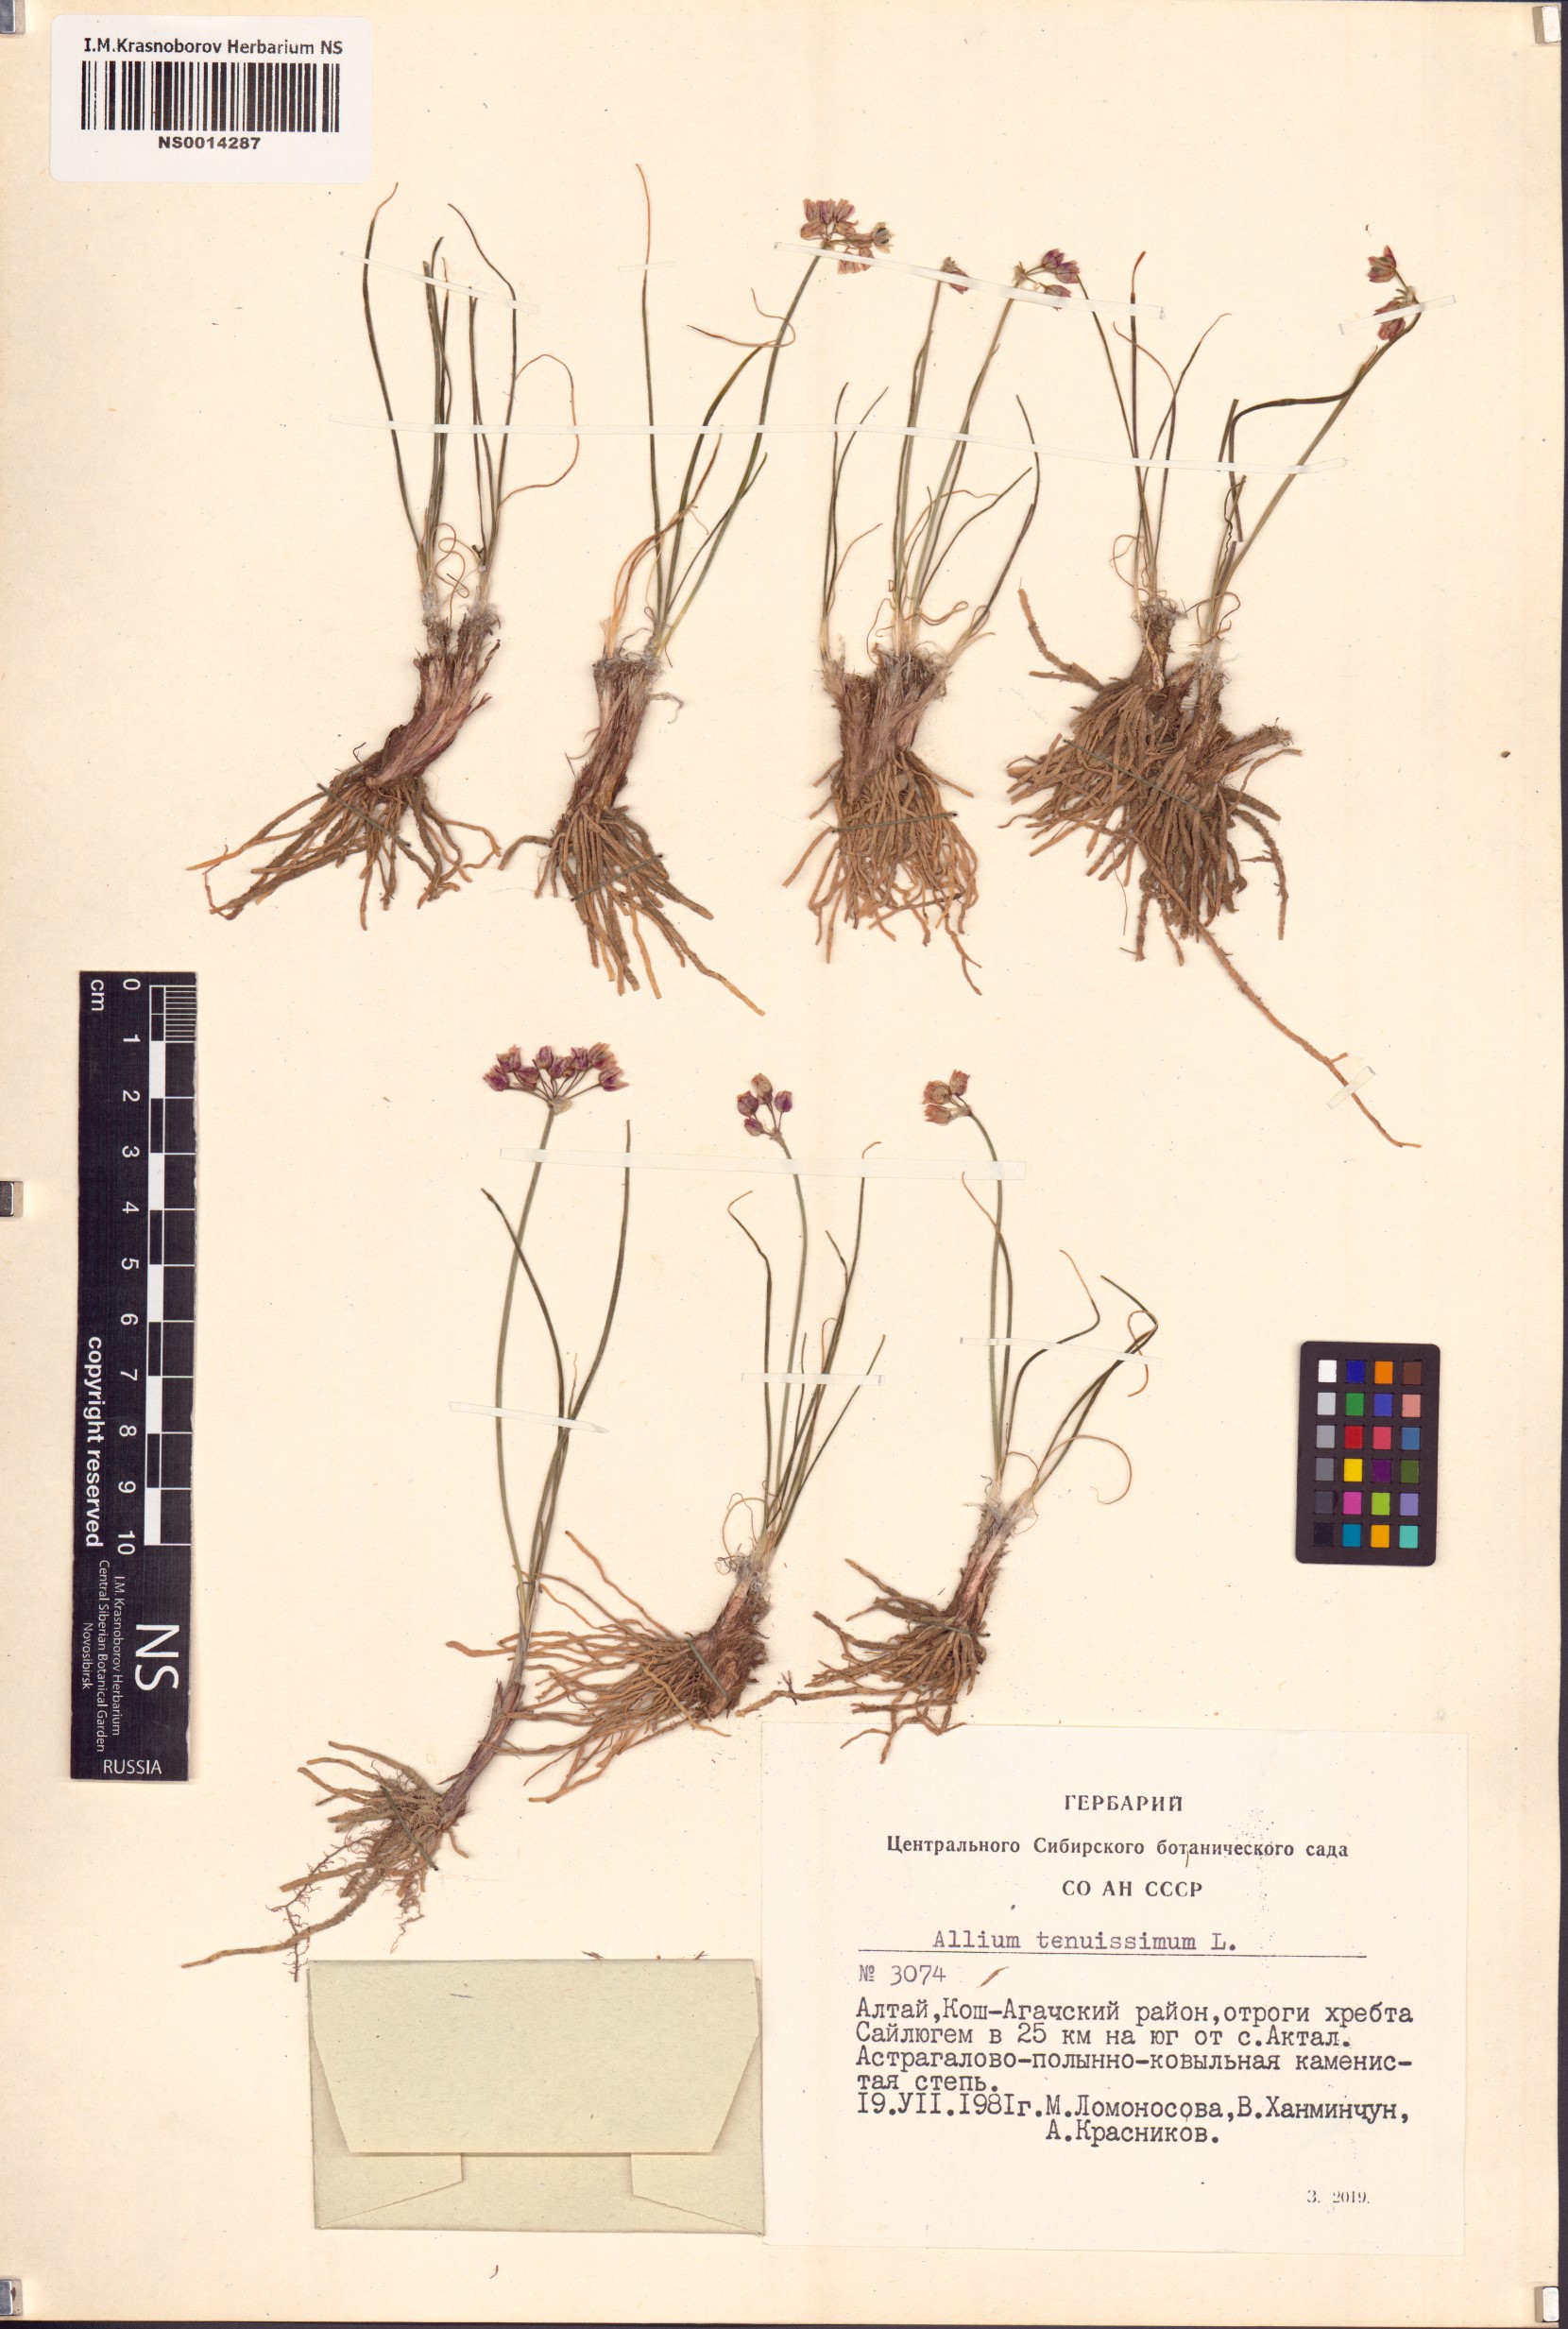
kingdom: Plantae
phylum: Tracheophyta
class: Liliopsida
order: Asparagales
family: Amaryllidaceae
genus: Allium
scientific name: Allium tenuissimum
